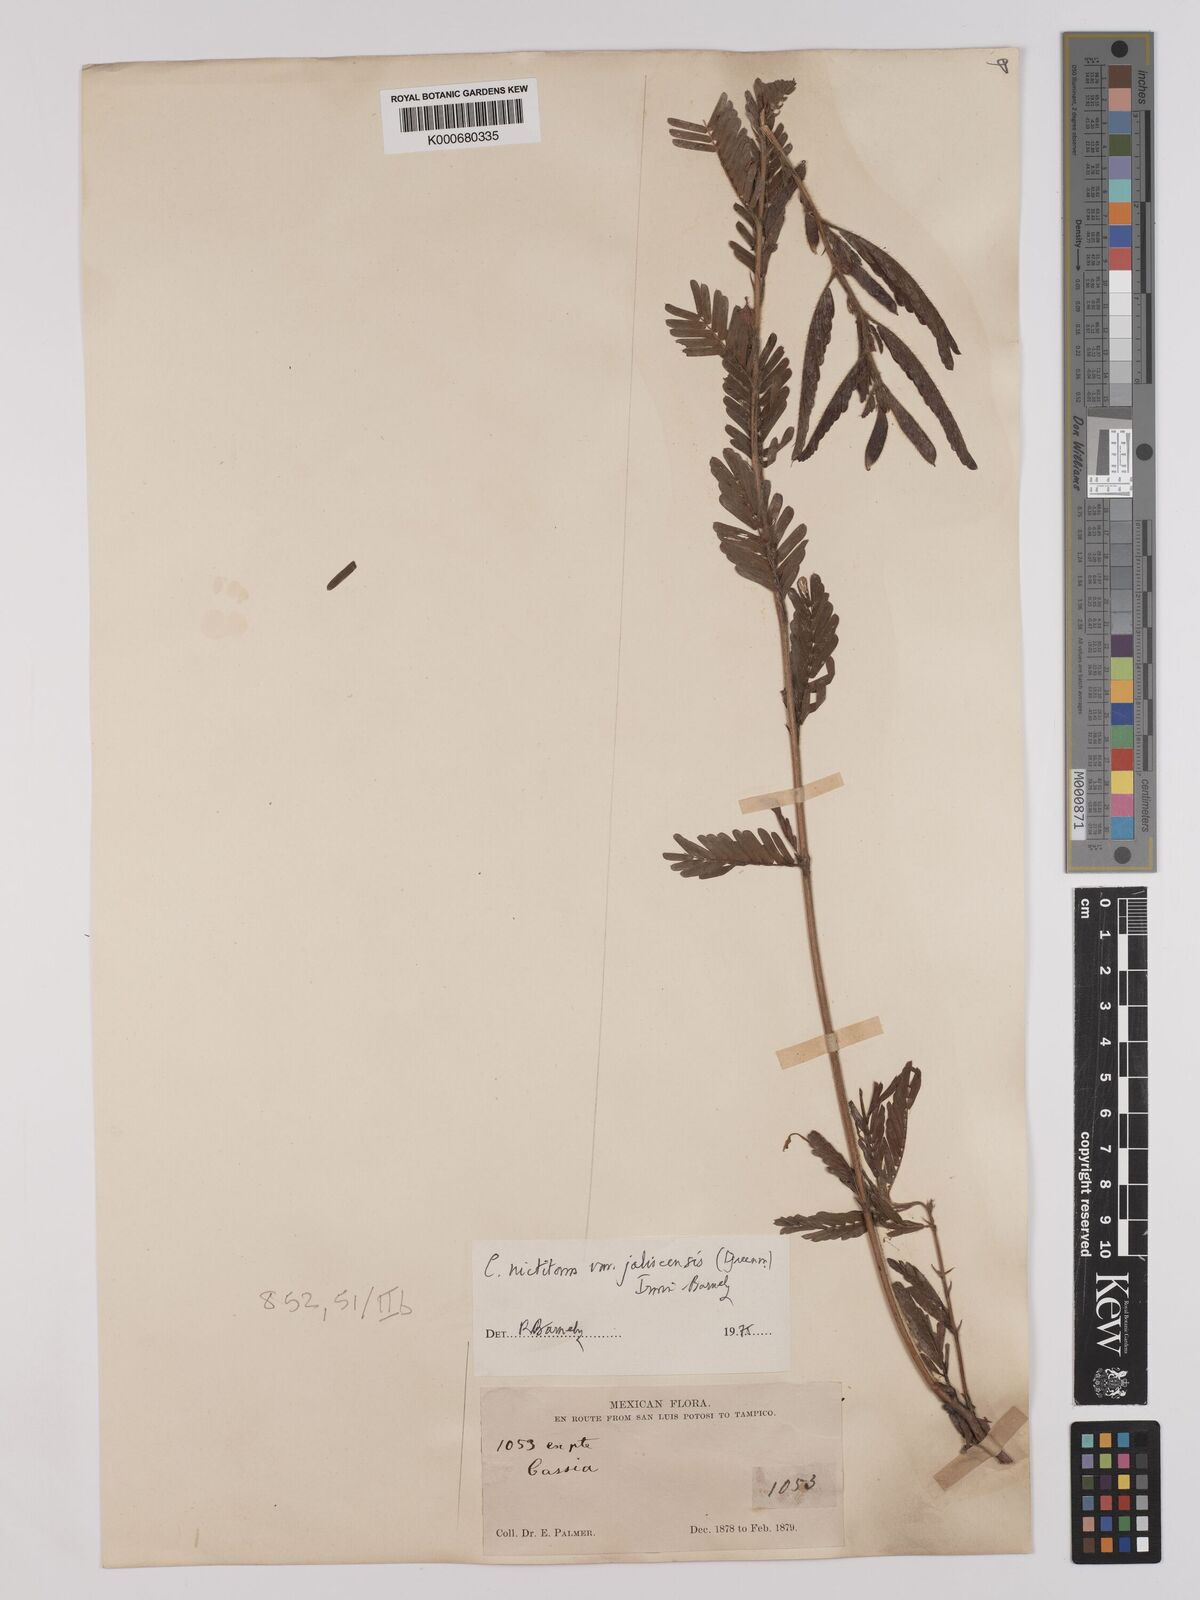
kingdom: Plantae
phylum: Tracheophyta
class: Magnoliopsida
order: Fabales
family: Fabaceae
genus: Chamaecrista
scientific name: Chamaecrista nictitans
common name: Sensitive cassia
